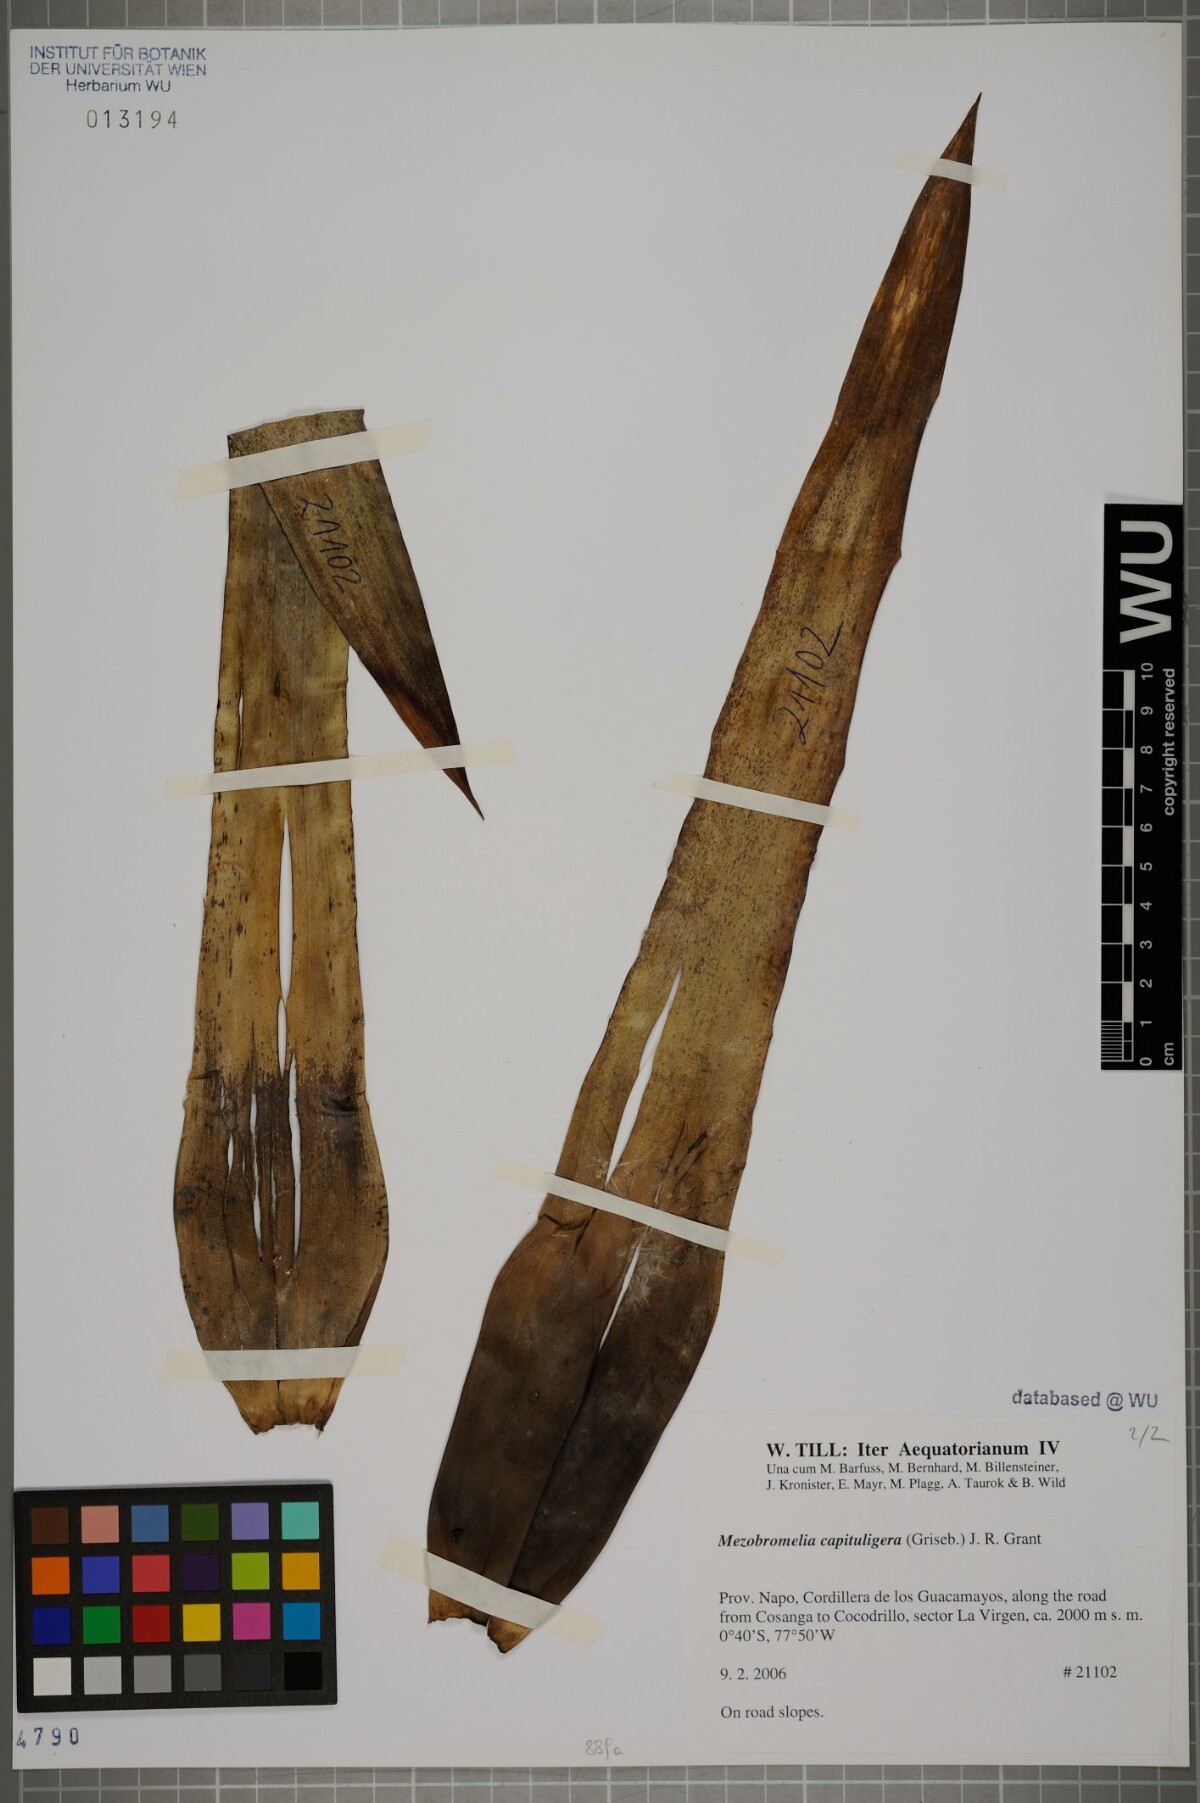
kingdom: Plantae
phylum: Tracheophyta
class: Liliopsida
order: Poales
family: Bromeliaceae
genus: Cipuropsis
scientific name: Cipuropsis bicolor
